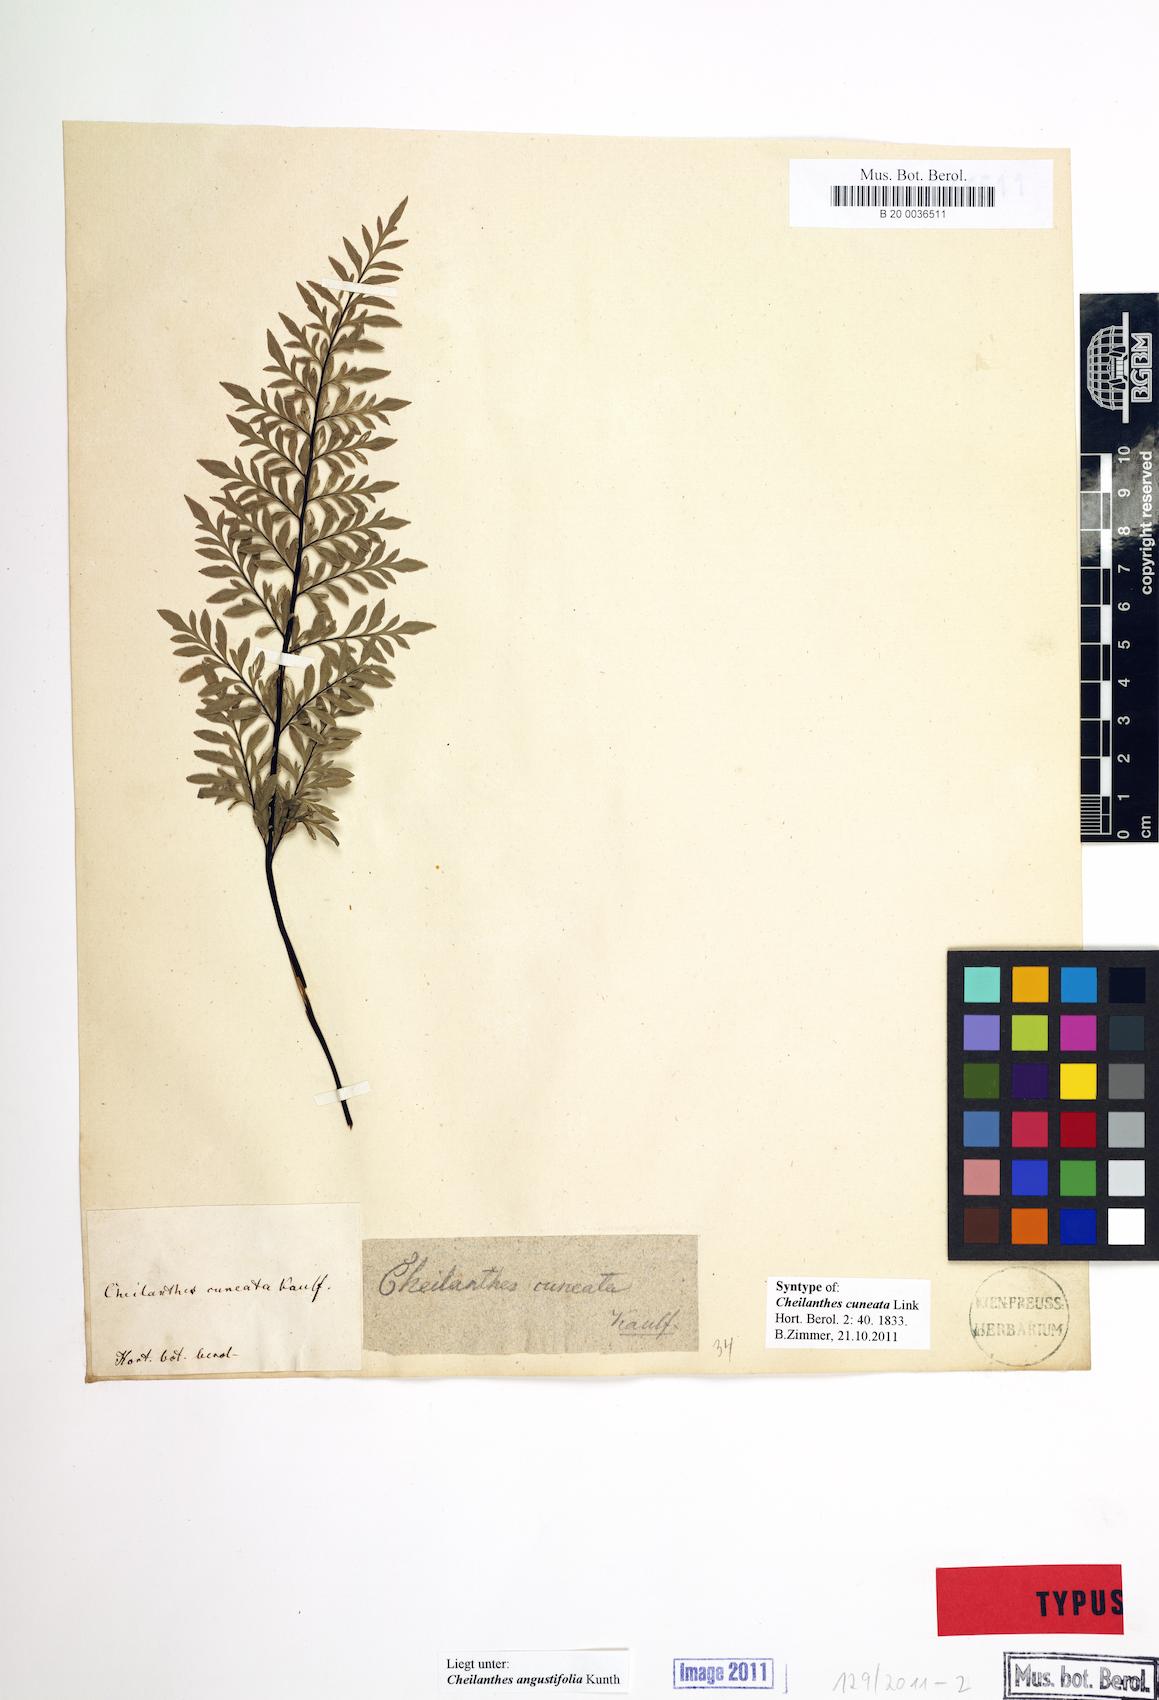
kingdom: Plantae
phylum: Tracheophyta
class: Polypodiopsida
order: Polypodiales
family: Pteridaceae
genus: Gaga
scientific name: Gaga cuneata
